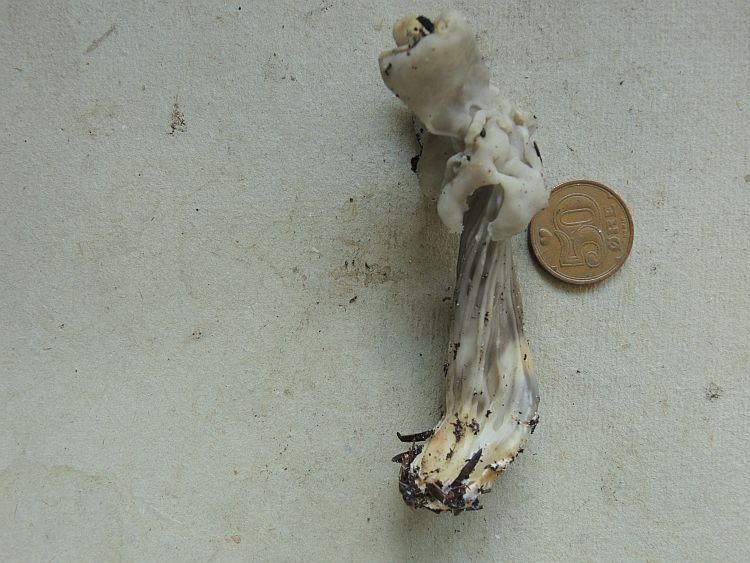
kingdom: Fungi
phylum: Ascomycota
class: Pezizomycetes
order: Pezizales
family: Helvellaceae
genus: Helvella
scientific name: Helvella lacunosa
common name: grubet foldhat
